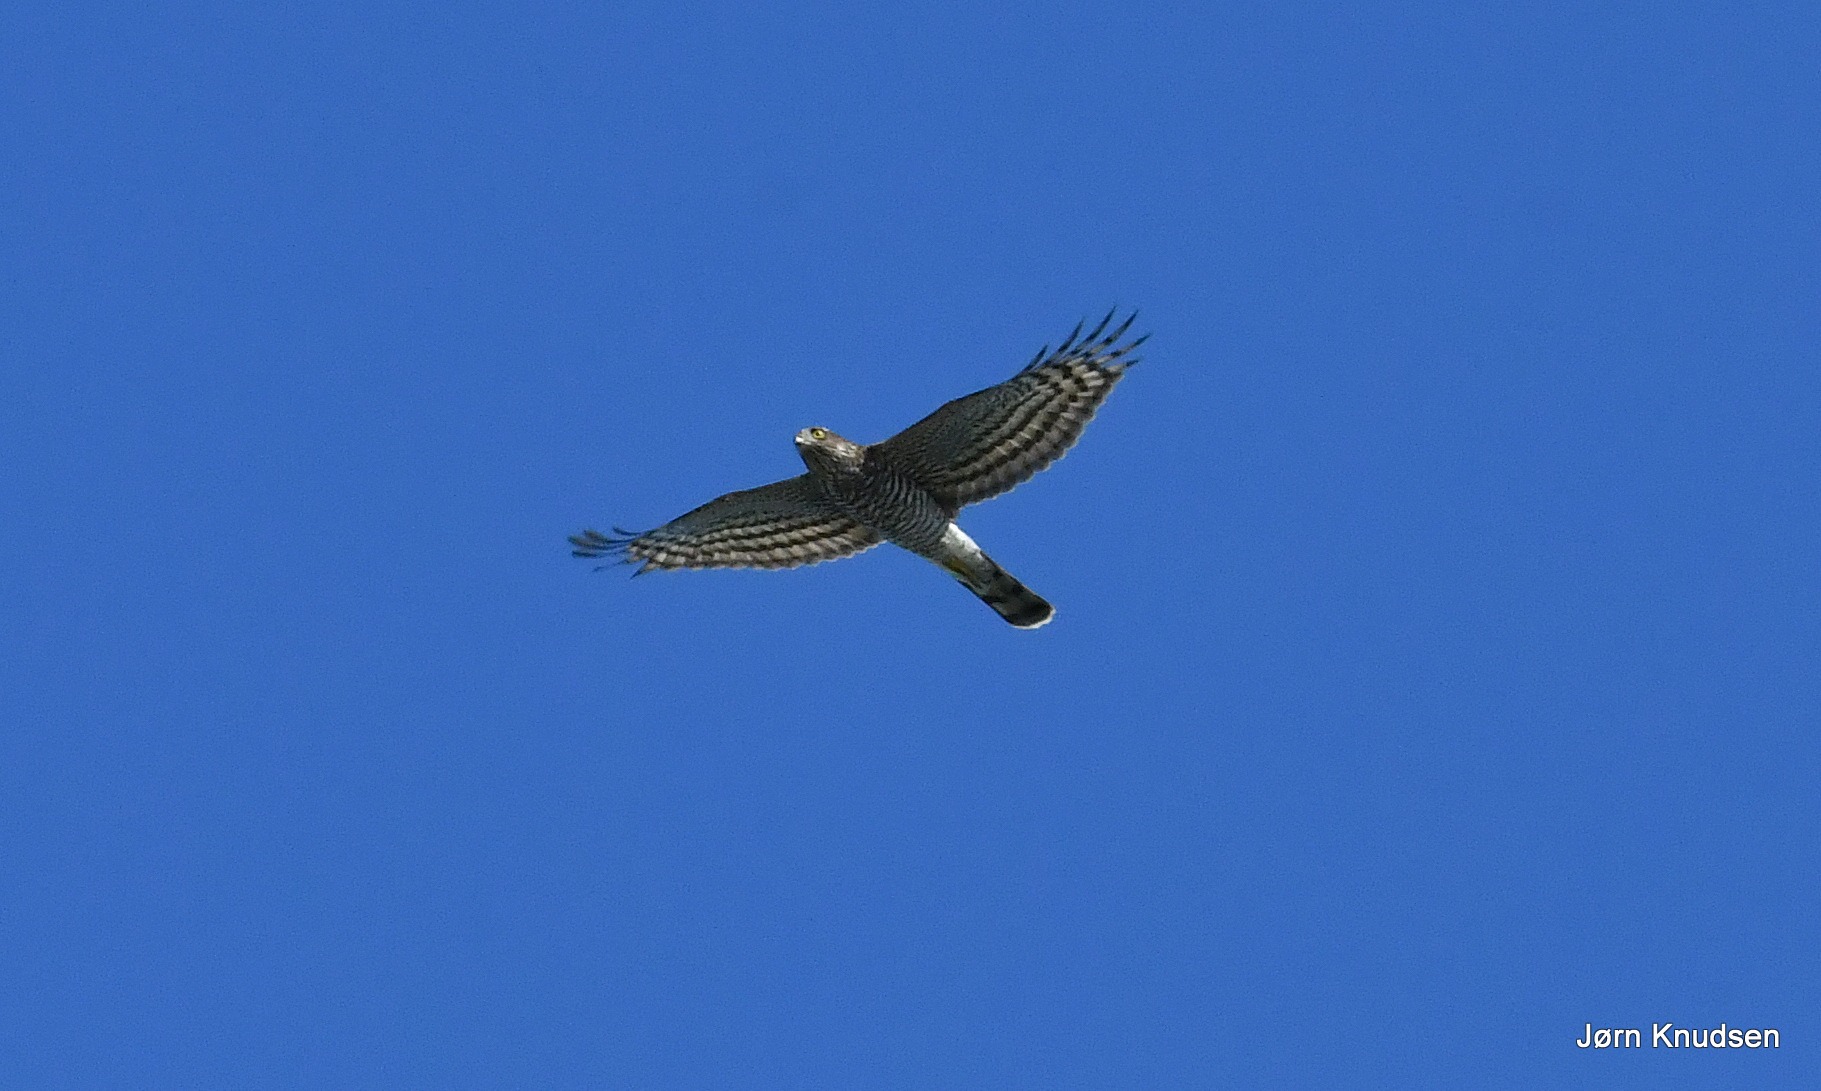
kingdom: Animalia
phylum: Chordata
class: Aves
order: Accipitriformes
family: Accipitridae
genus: Accipiter
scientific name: Accipiter nisus
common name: Spurvehøg
